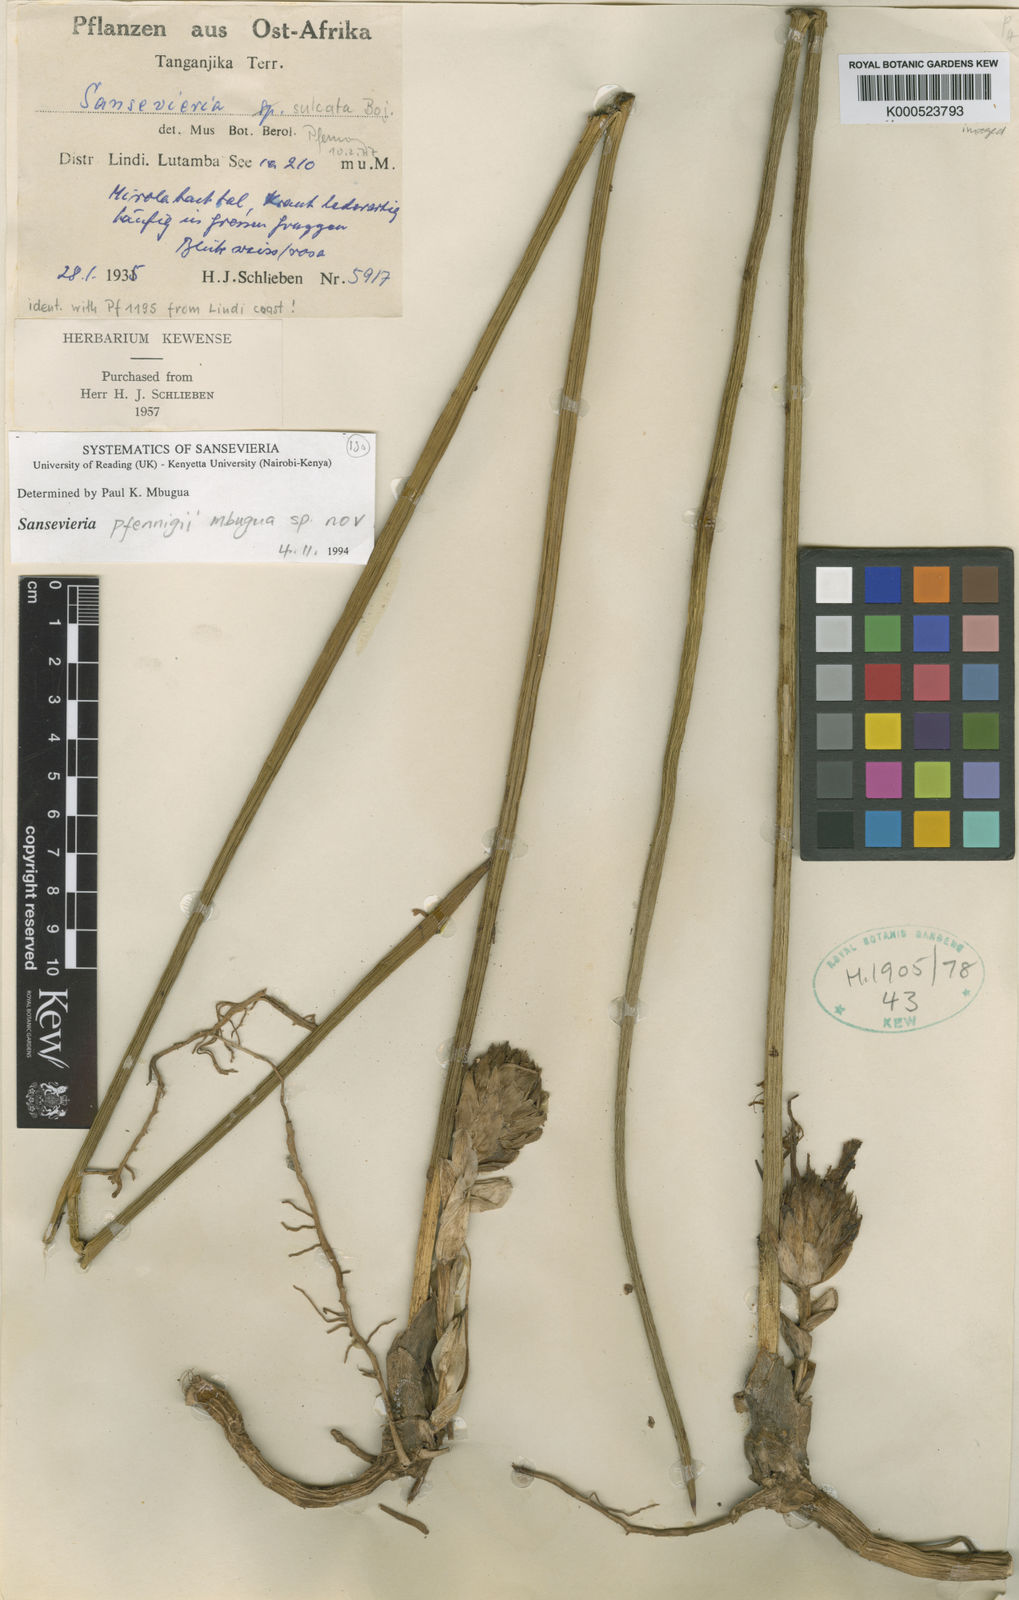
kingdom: Plantae
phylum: Tracheophyta
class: Liliopsida
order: Asparagales
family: Asparagaceae
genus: Dracaena
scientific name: Dracaena
